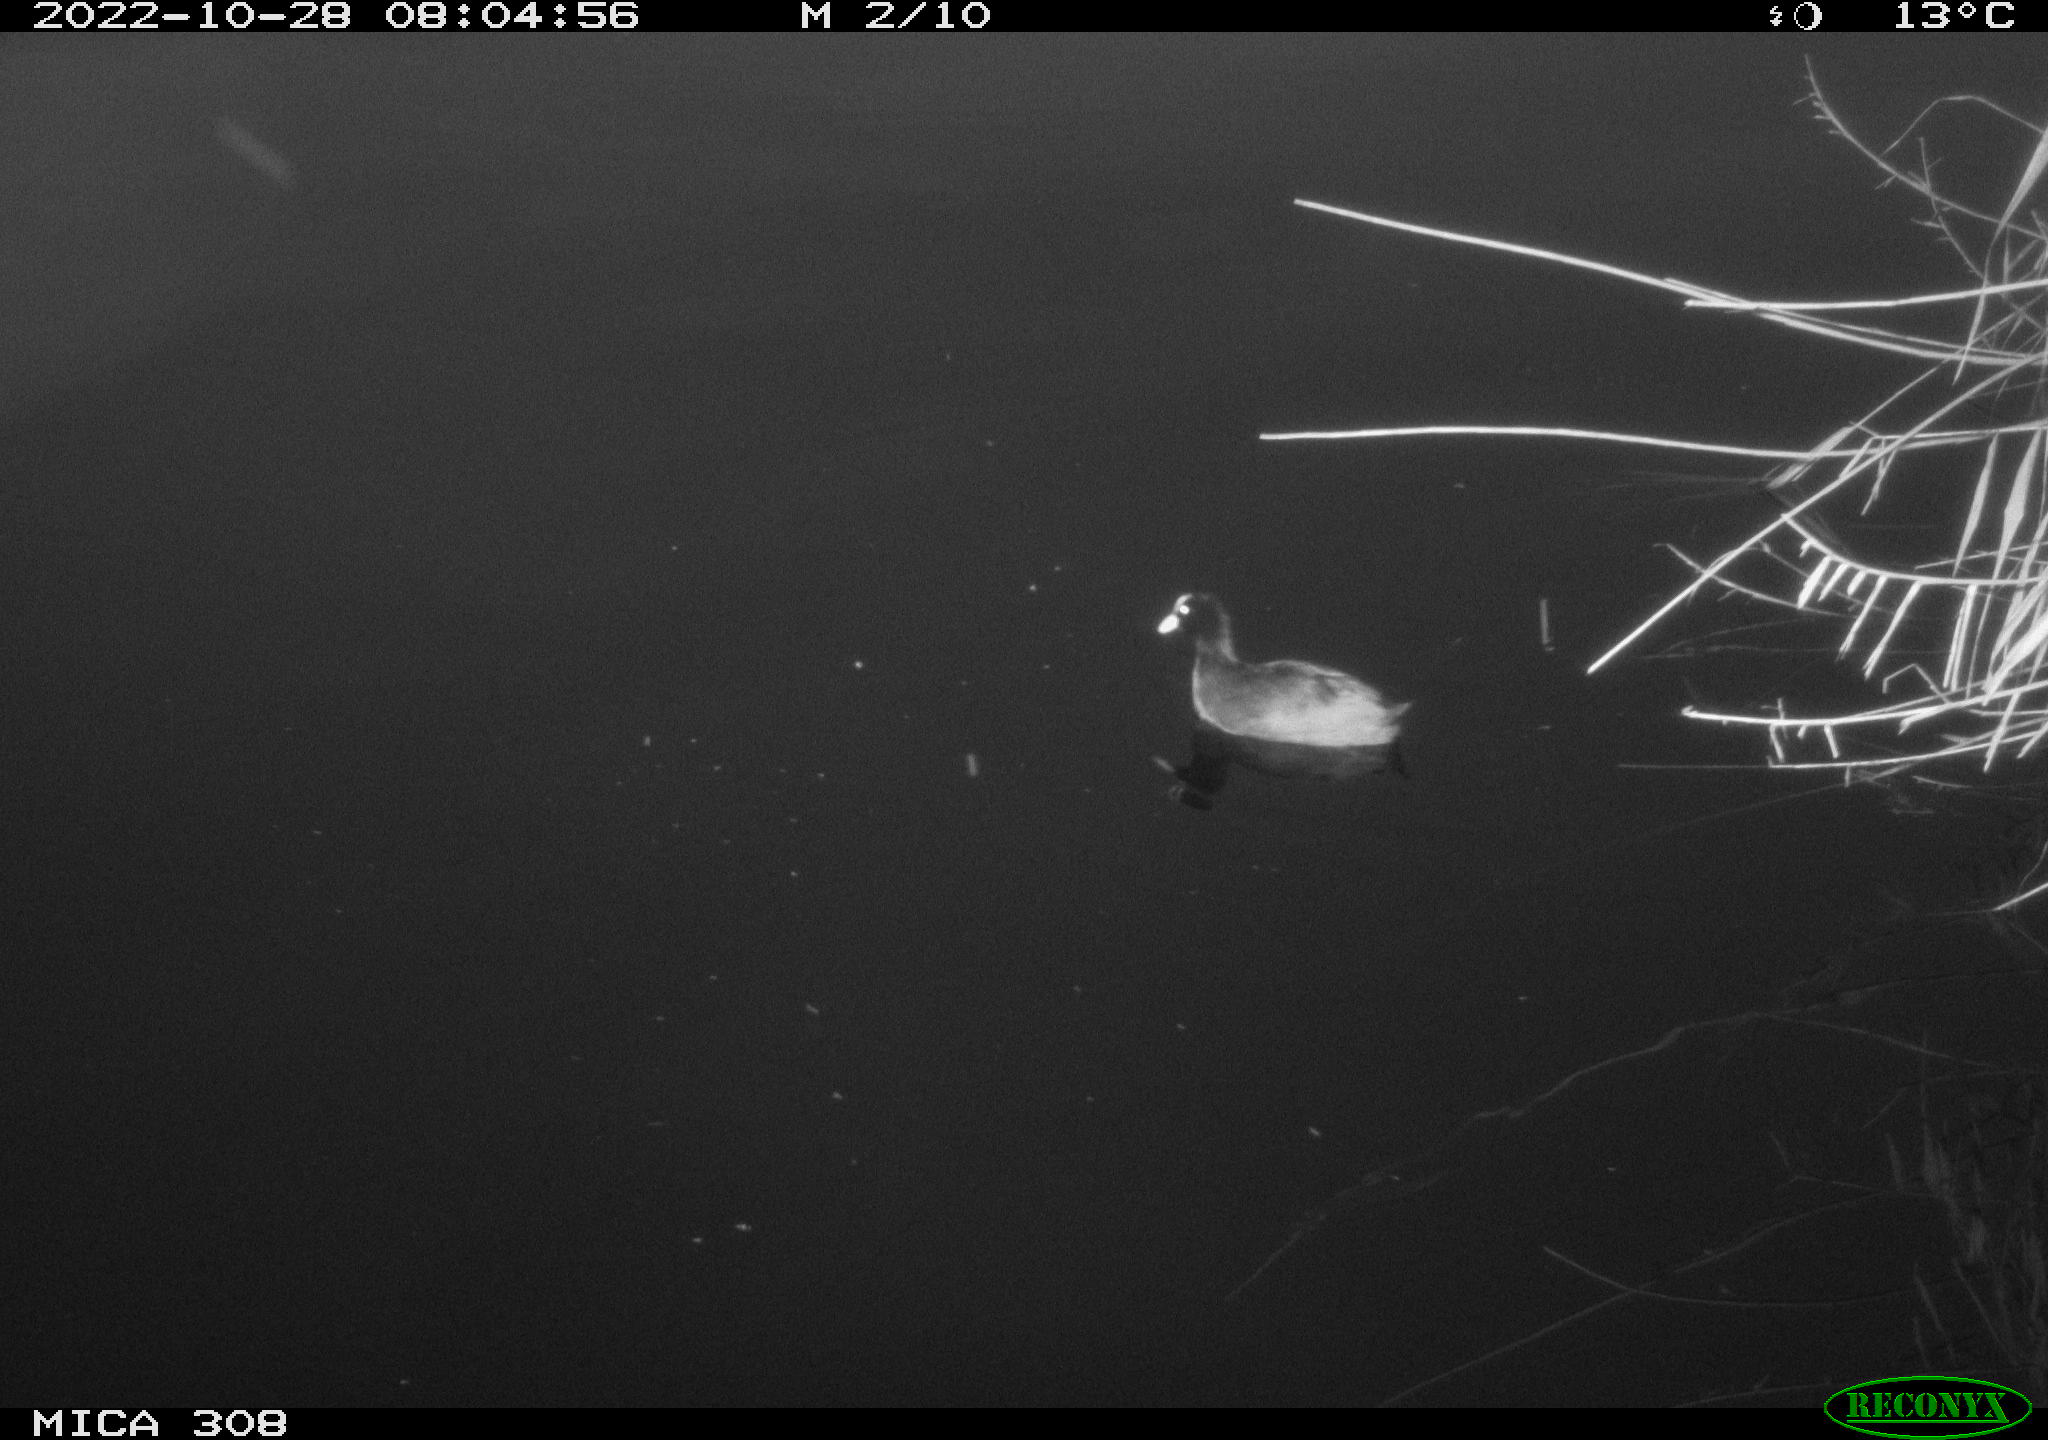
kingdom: Animalia
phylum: Chordata
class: Aves
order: Anseriformes
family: Anatidae
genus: Anas
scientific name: Anas
